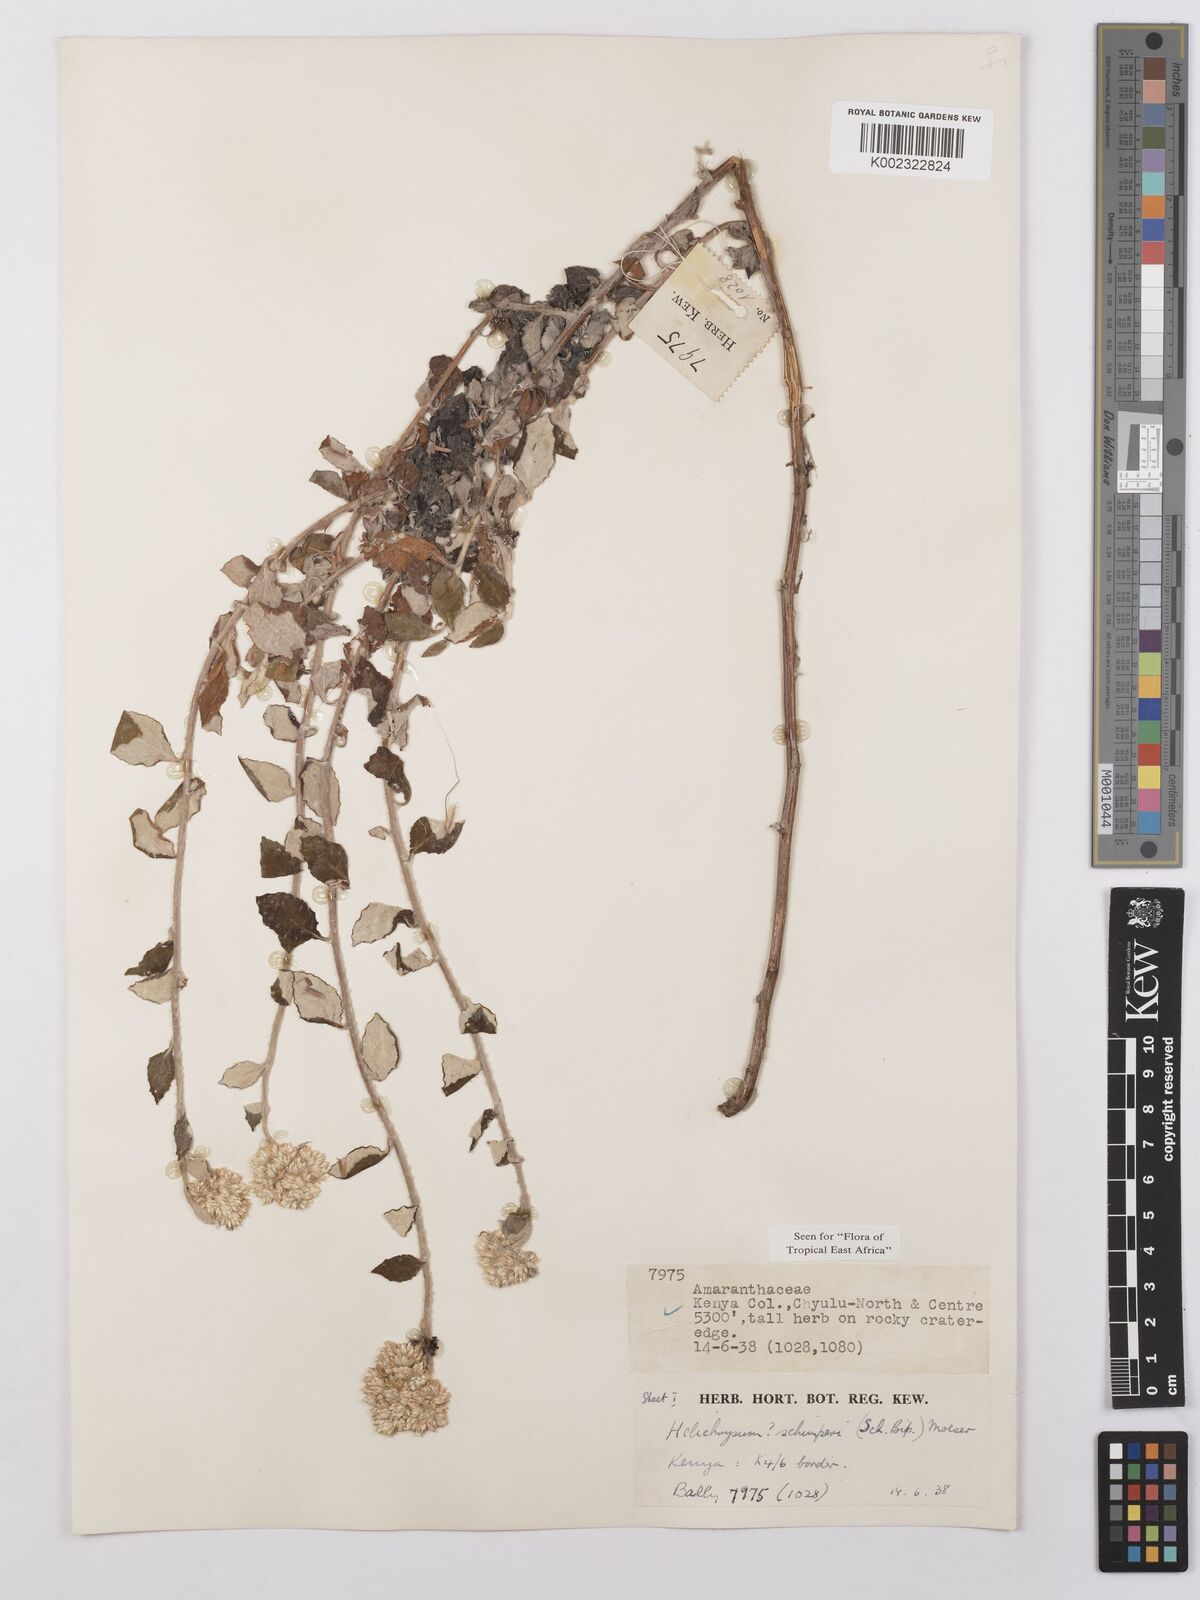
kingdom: Plantae
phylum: Tracheophyta
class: Magnoliopsida
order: Asterales
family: Asteraceae
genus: Helichrysum
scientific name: Helichrysum schimperi
